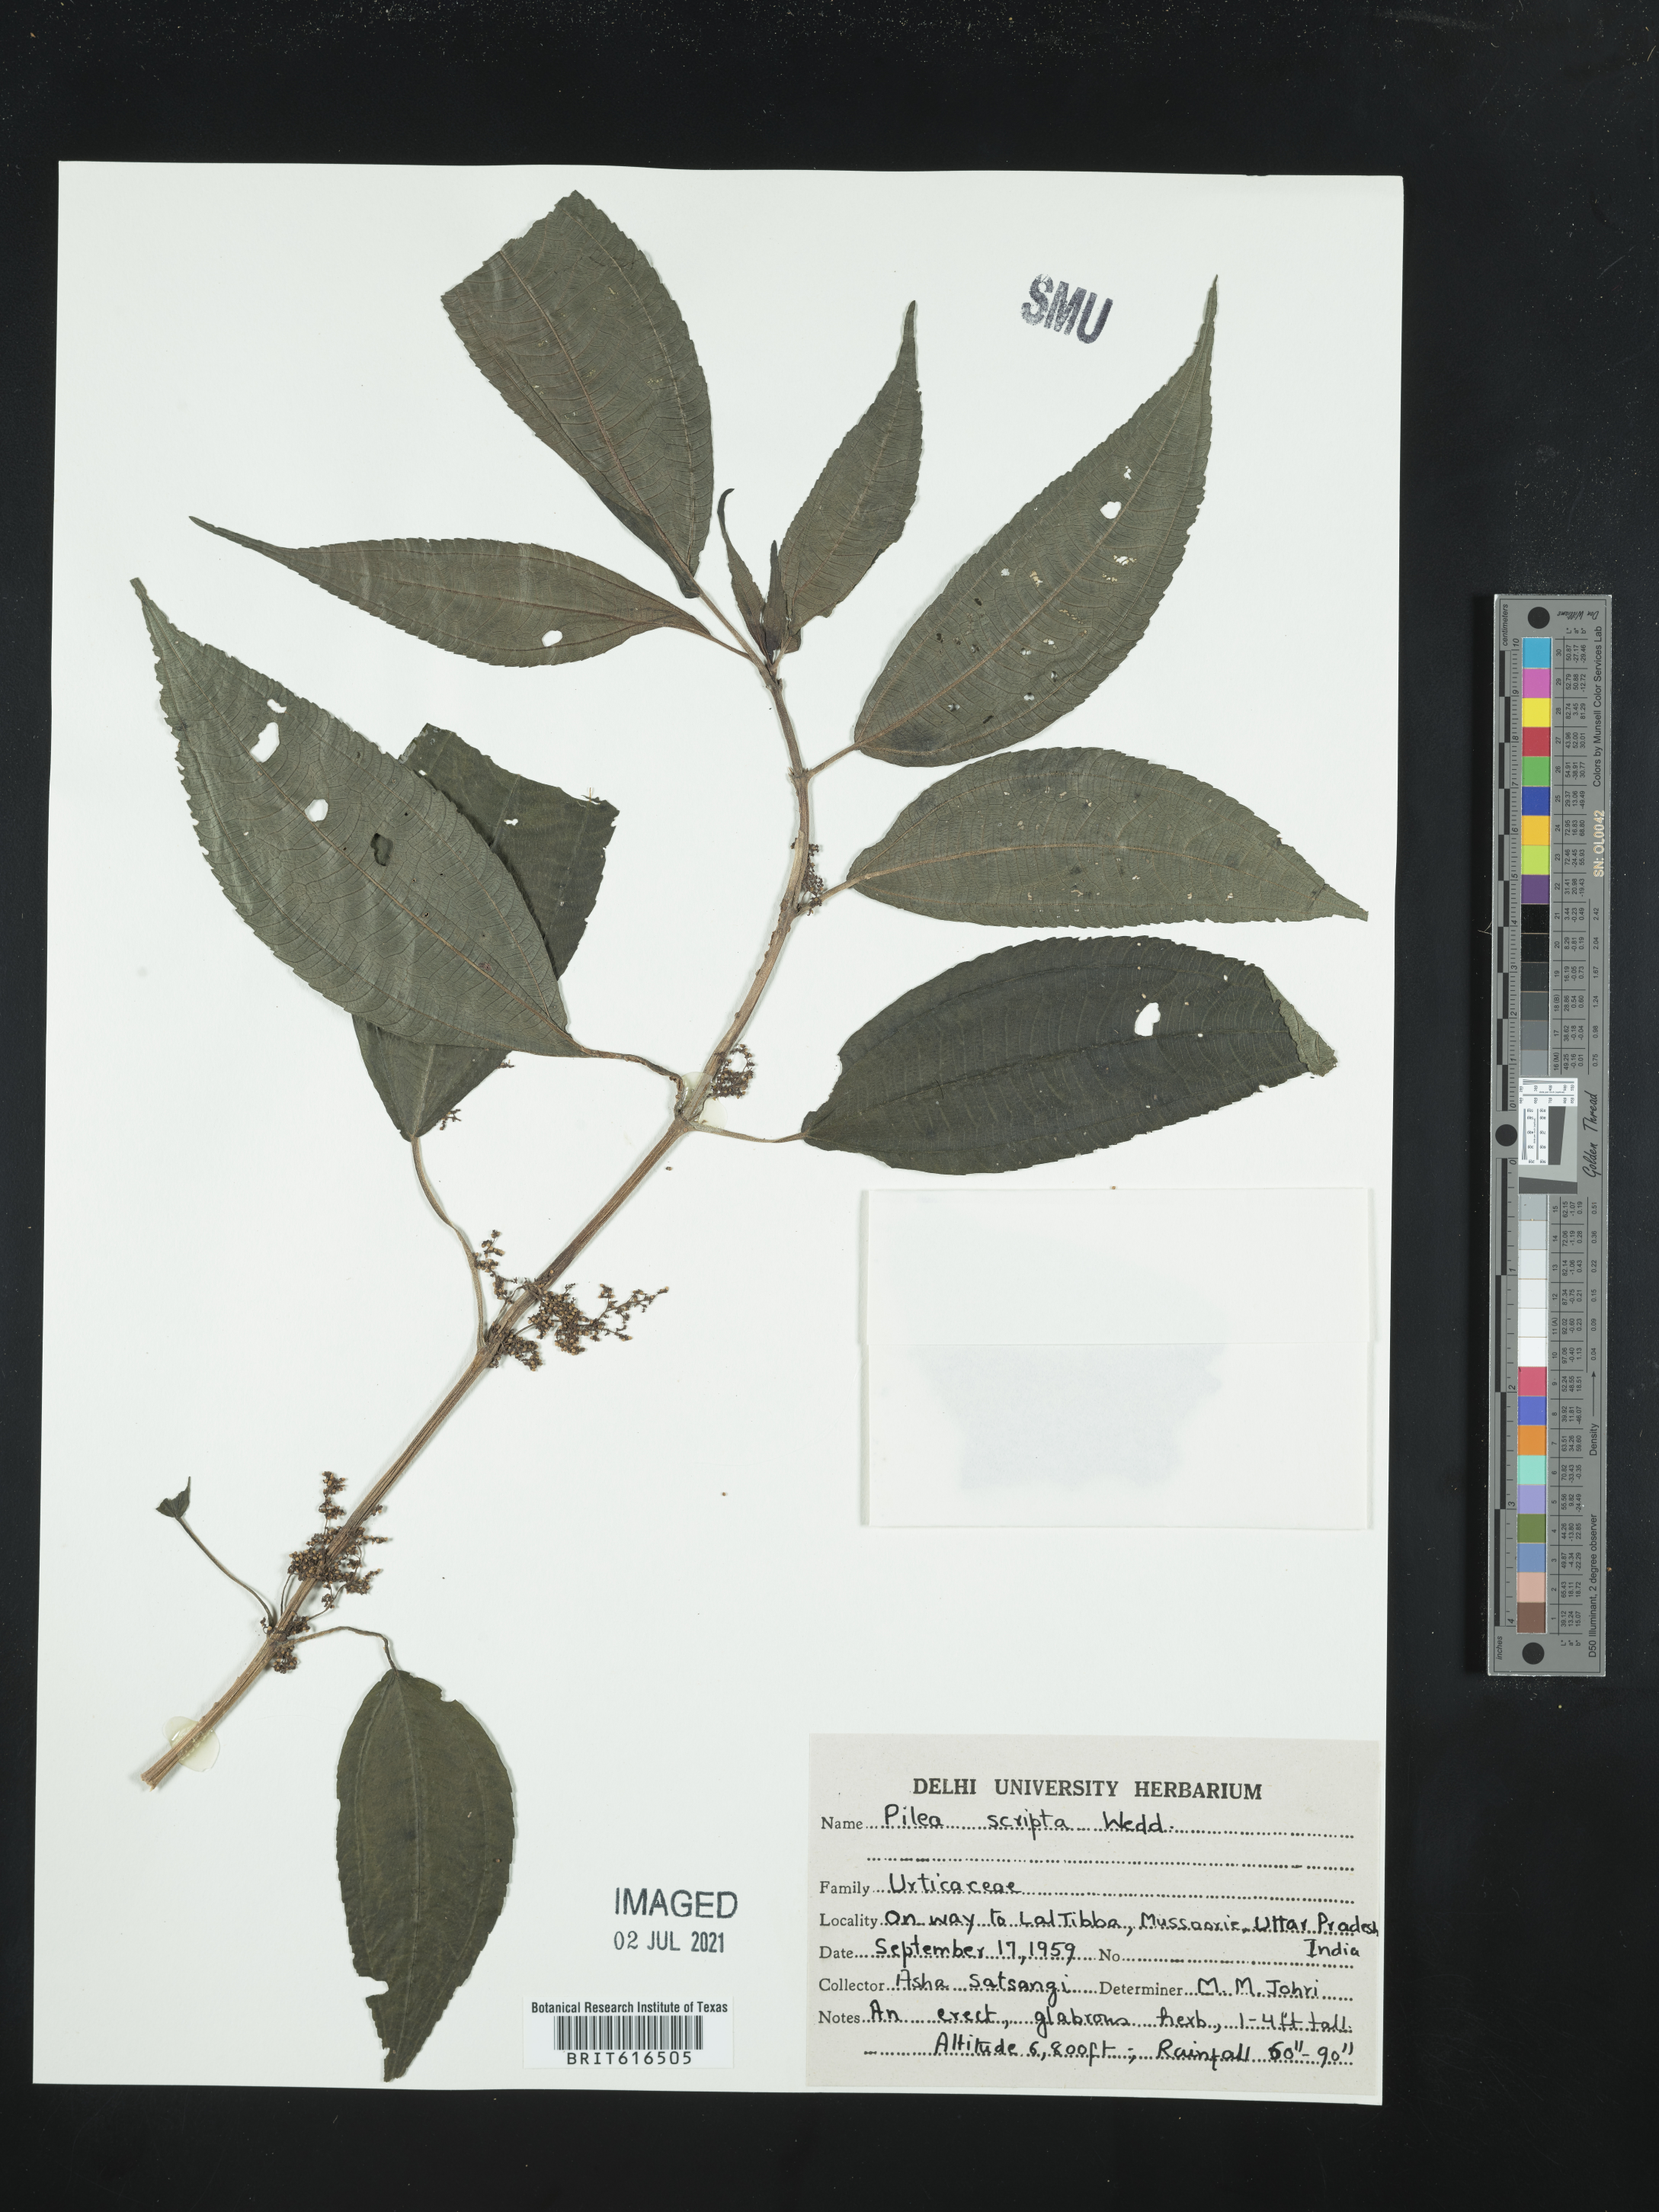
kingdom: Plantae
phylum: Tracheophyta
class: Magnoliopsida
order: Rosales
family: Urticaceae
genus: Pilea
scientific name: Pilea scripta
